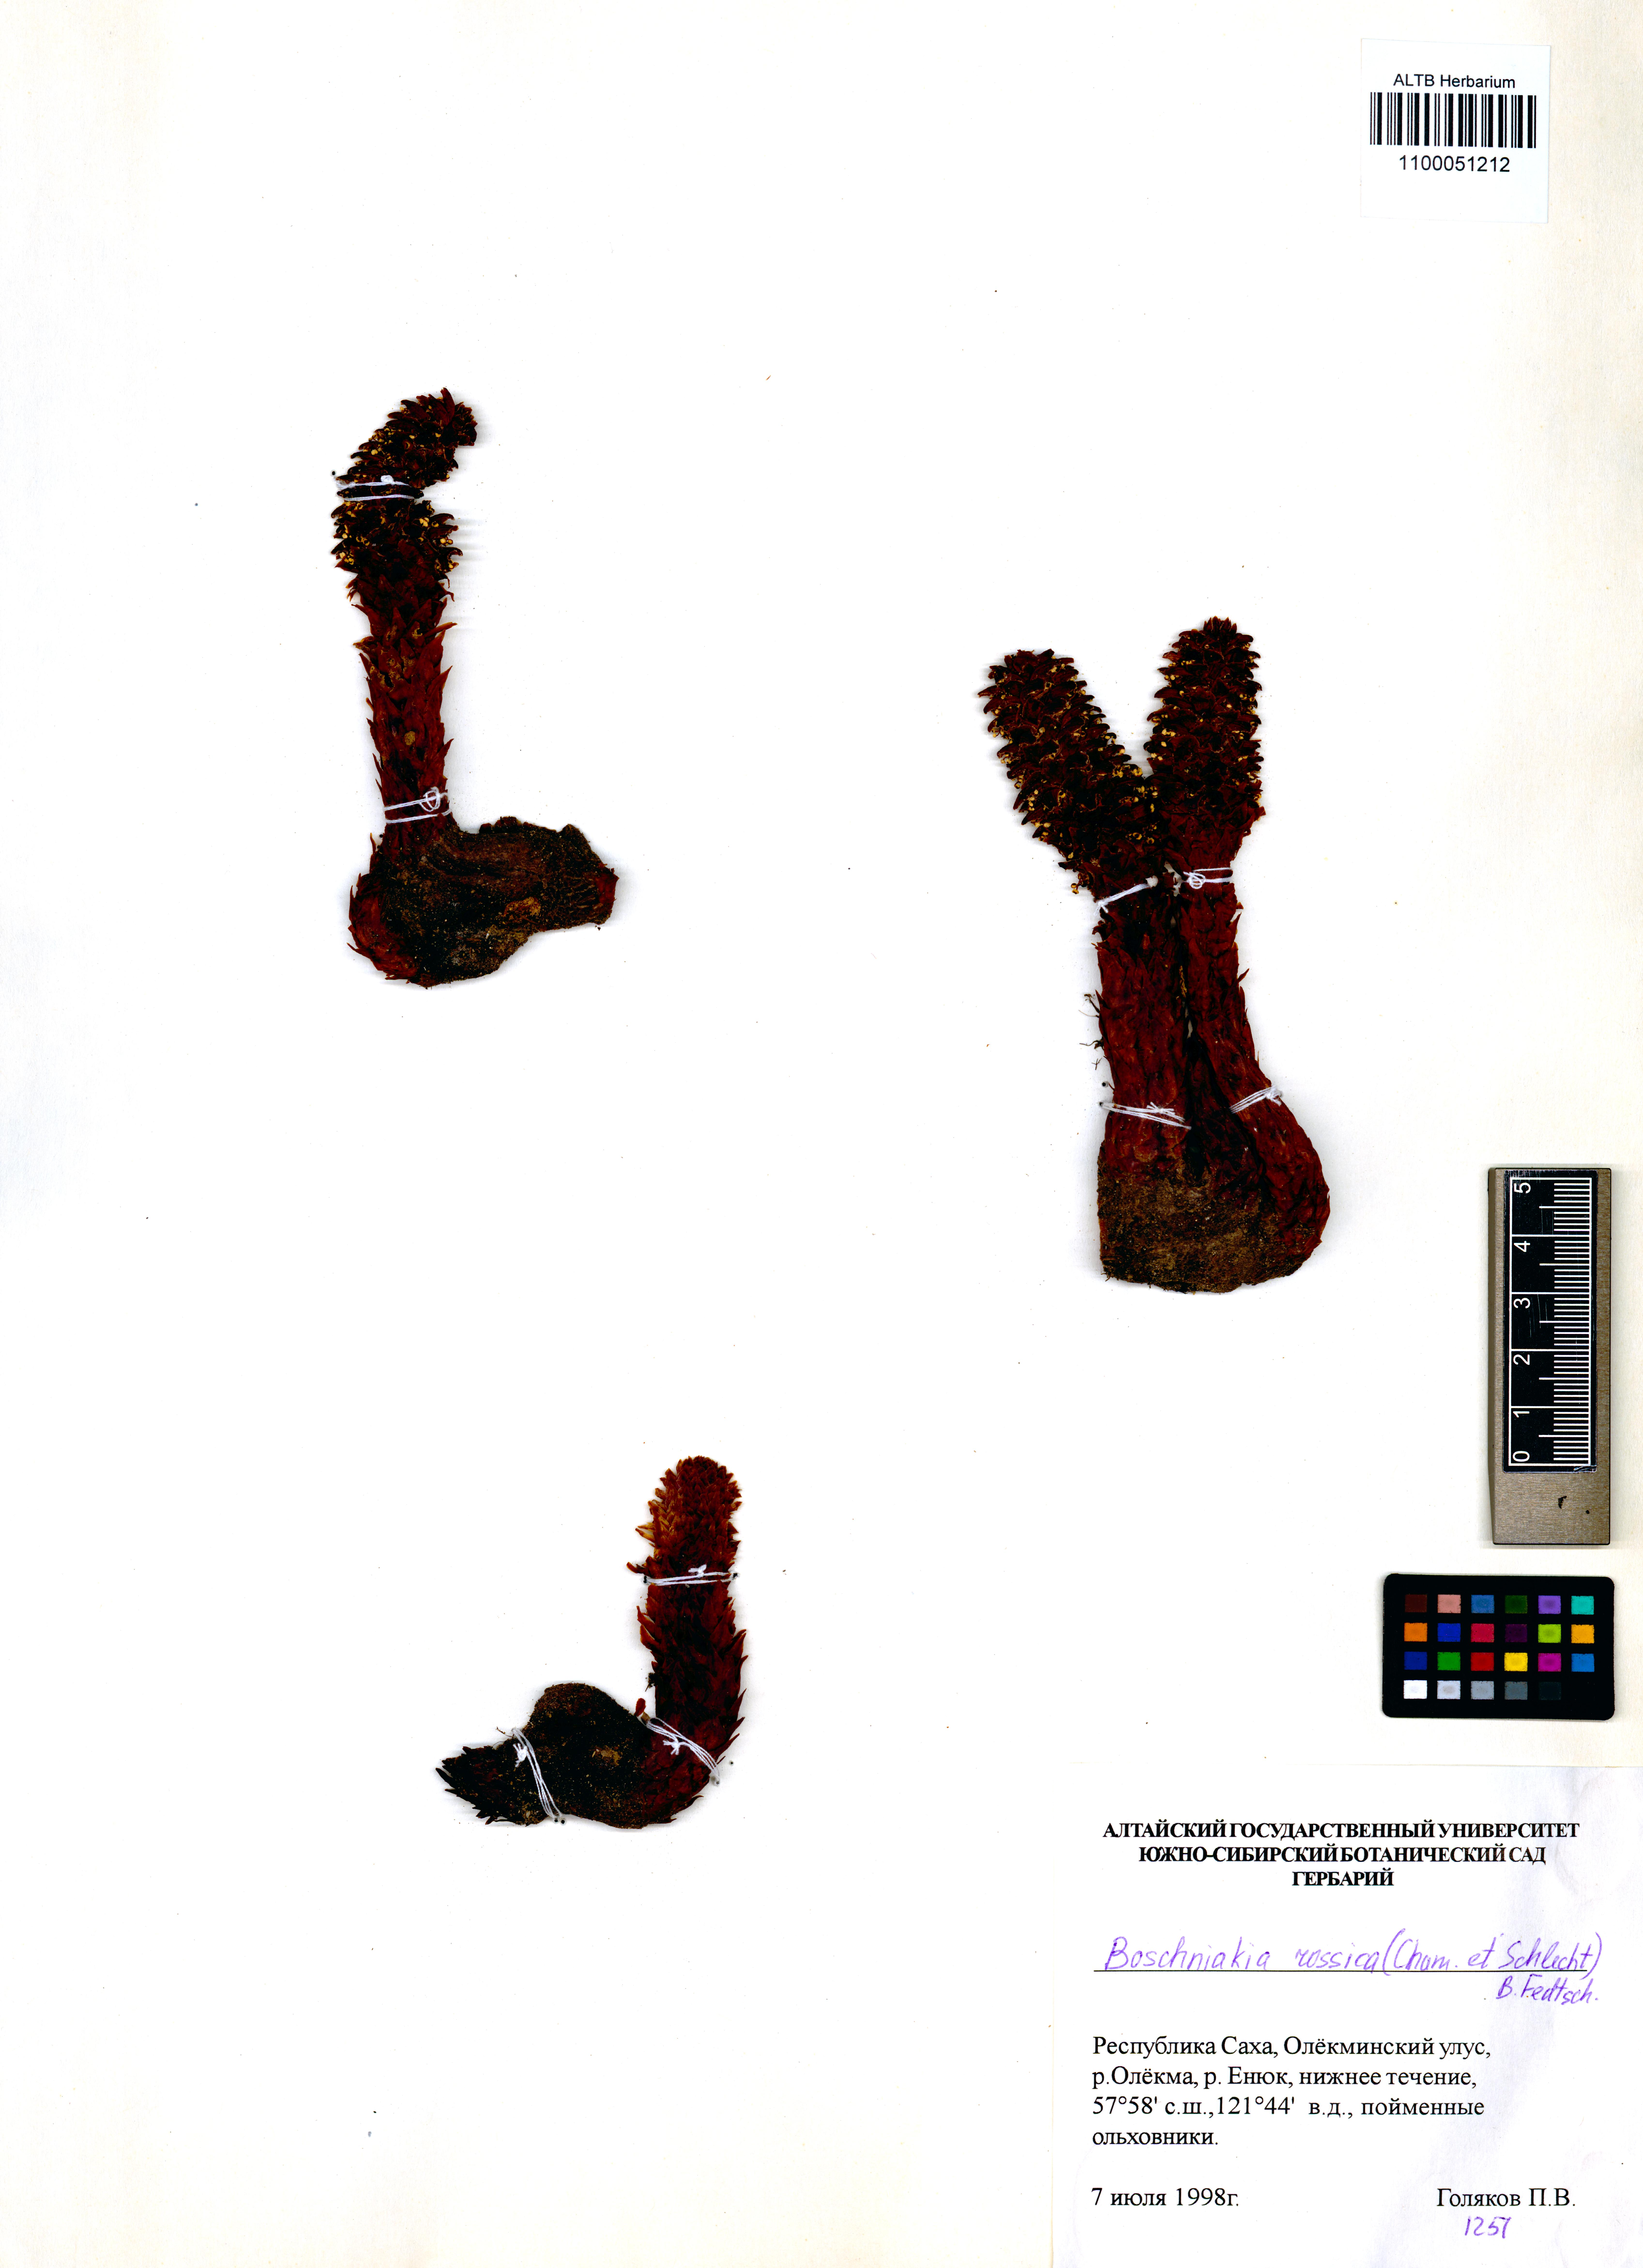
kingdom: Plantae
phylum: Tracheophyta
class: Magnoliopsida
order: Lamiales
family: Orobanchaceae
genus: Boschniakia
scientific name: Boschniakia rossica
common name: Poque
